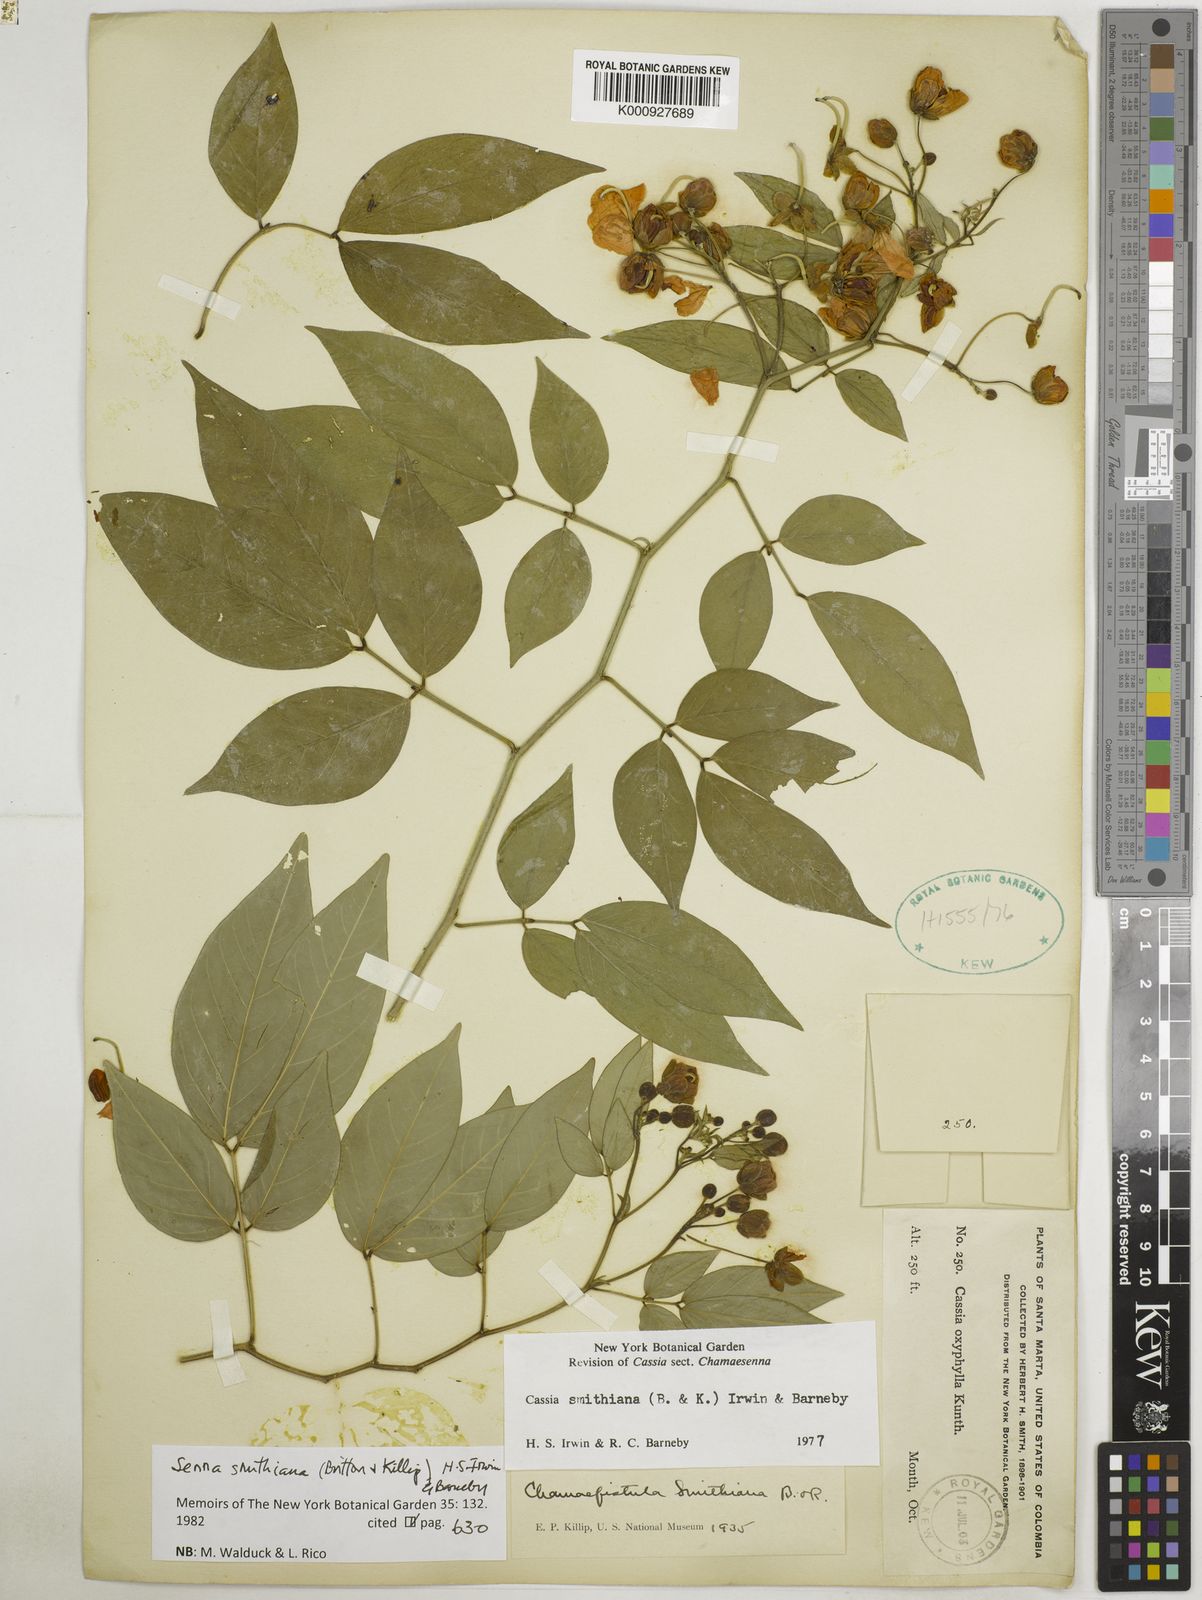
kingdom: Plantae
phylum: Tracheophyta
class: Magnoliopsida
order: Fabales
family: Fabaceae
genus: Senna
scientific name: Senna smithiana
